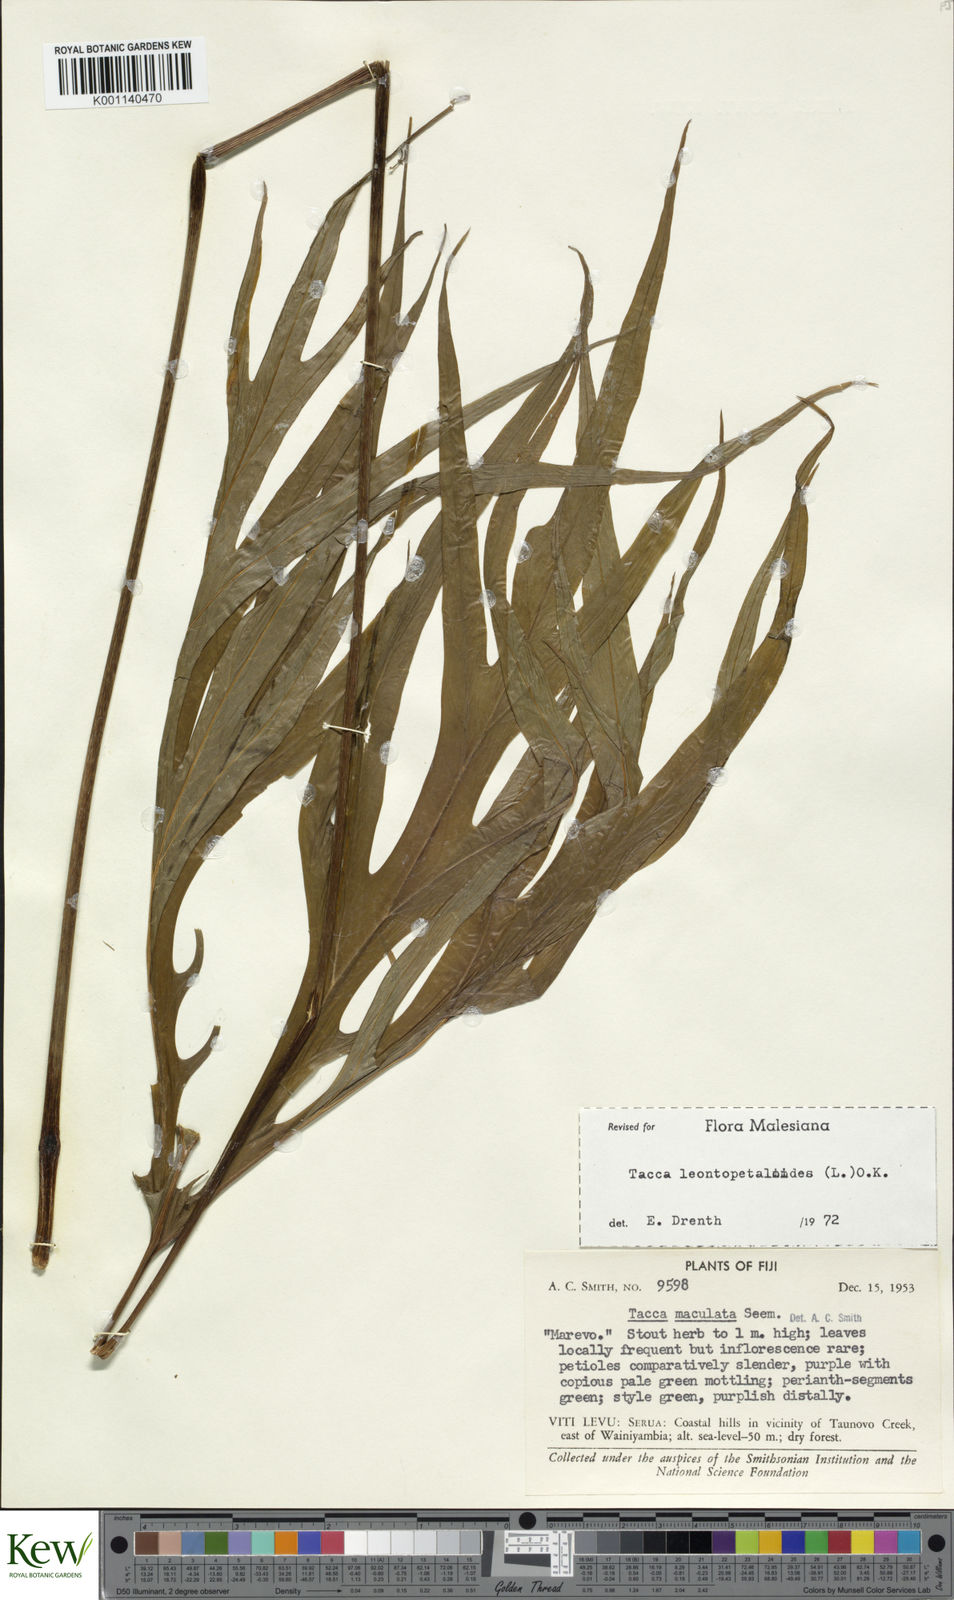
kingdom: Plantae
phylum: Tracheophyta
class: Liliopsida
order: Dioscoreales
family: Dioscoreaceae
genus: Tacca
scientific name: Tacca leontopetaloides
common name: Arrowroot
